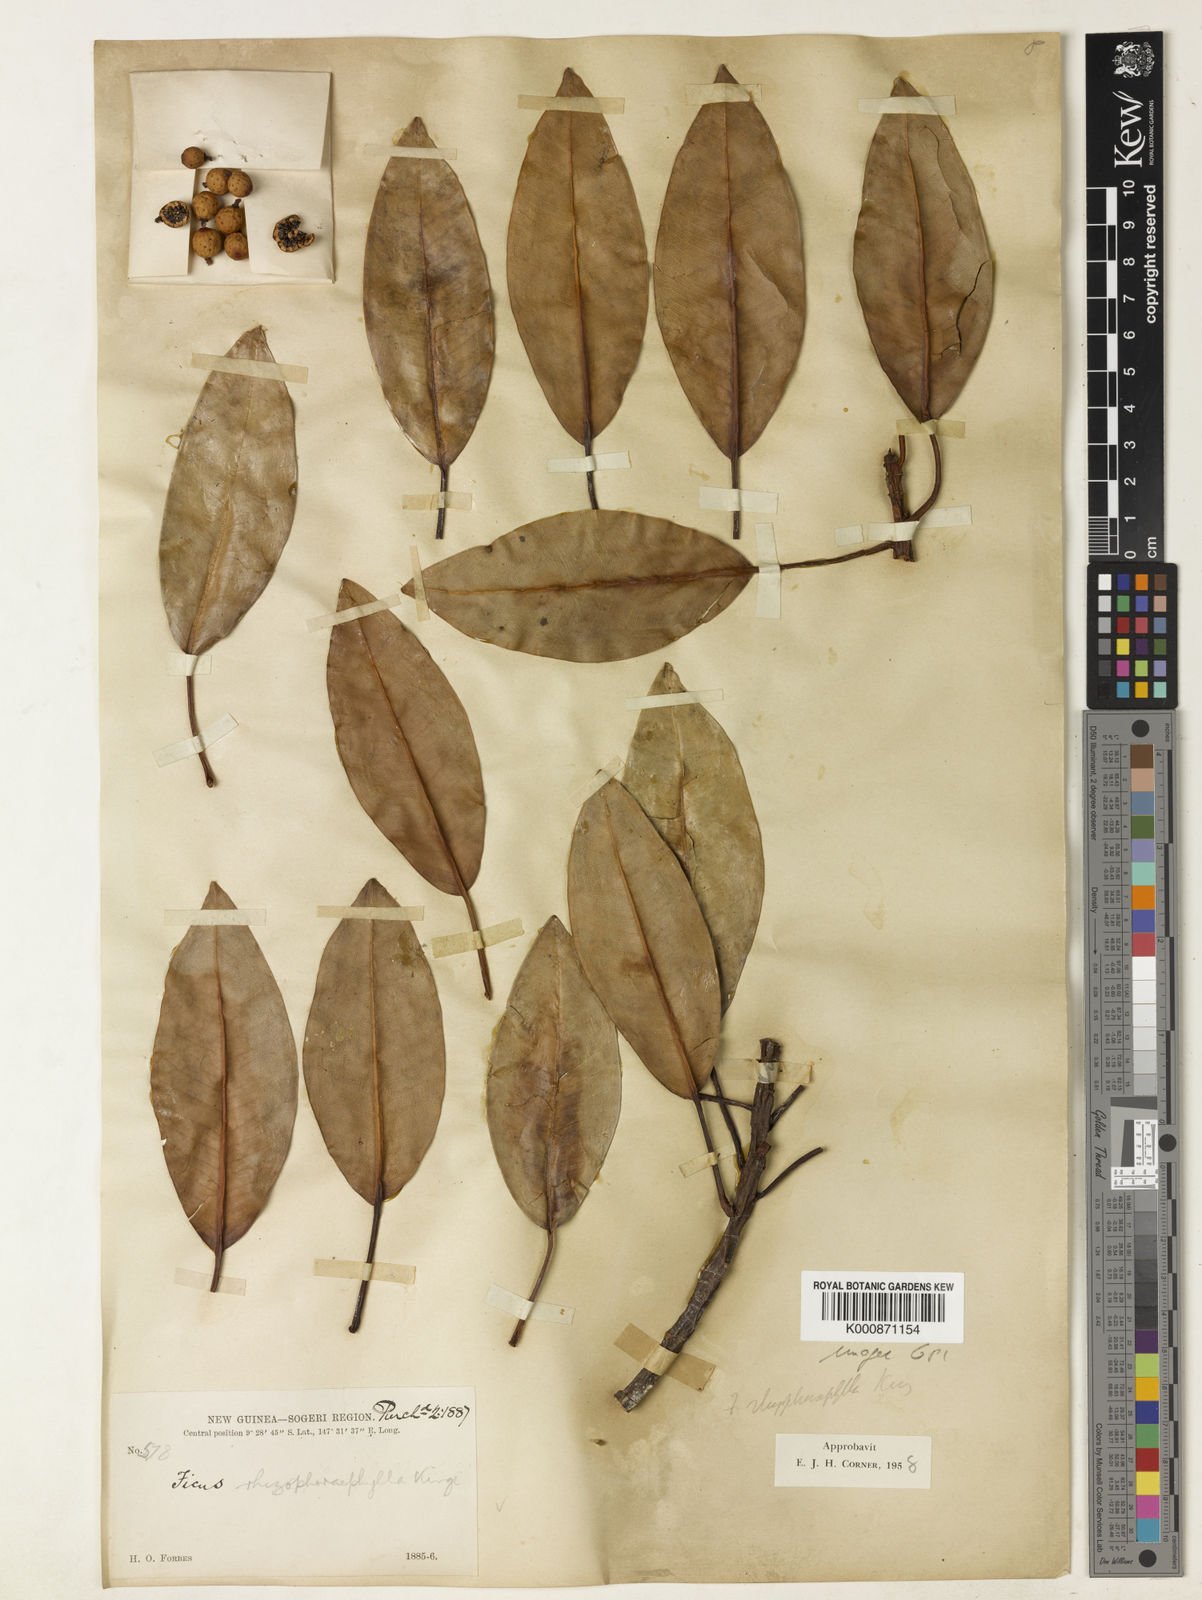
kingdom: Plantae
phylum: Tracheophyta
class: Magnoliopsida
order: Rosales
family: Moraceae
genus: Ficus
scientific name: Ficus
